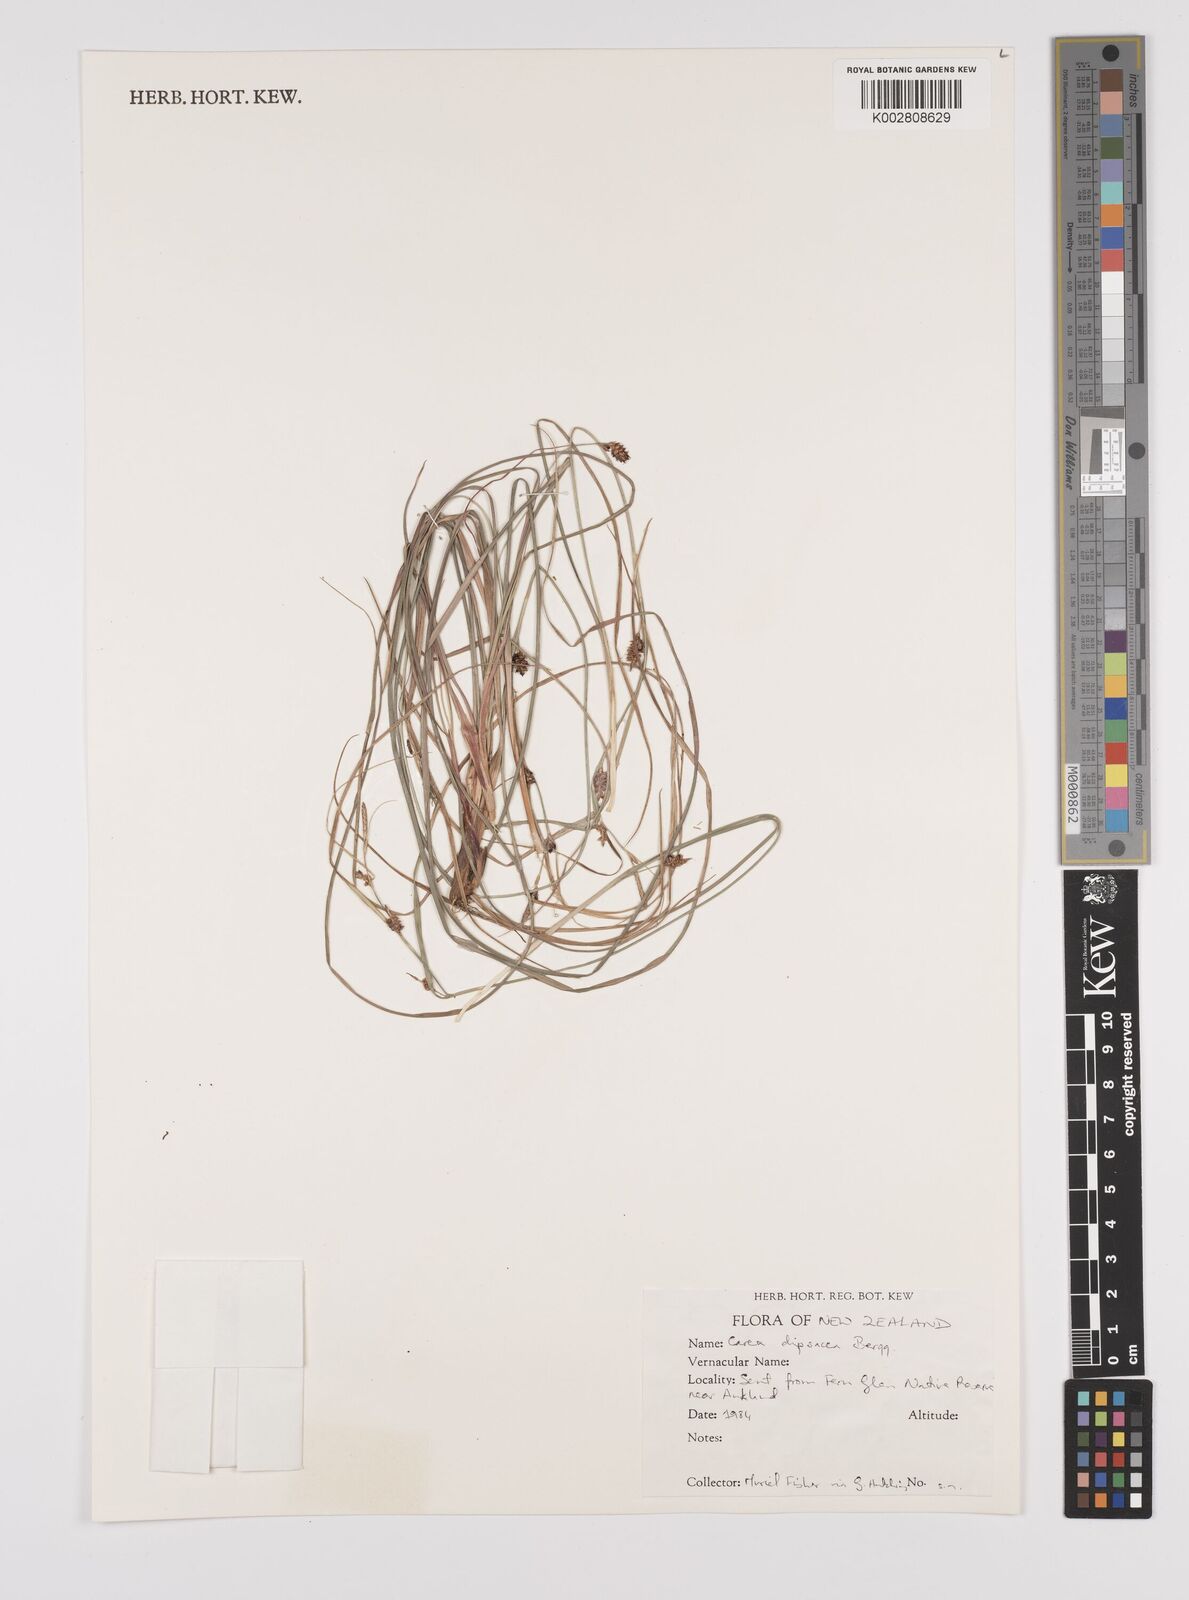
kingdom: Plantae
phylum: Tracheophyta
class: Liliopsida
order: Poales
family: Cyperaceae
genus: Carex
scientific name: Carex dipsacea
